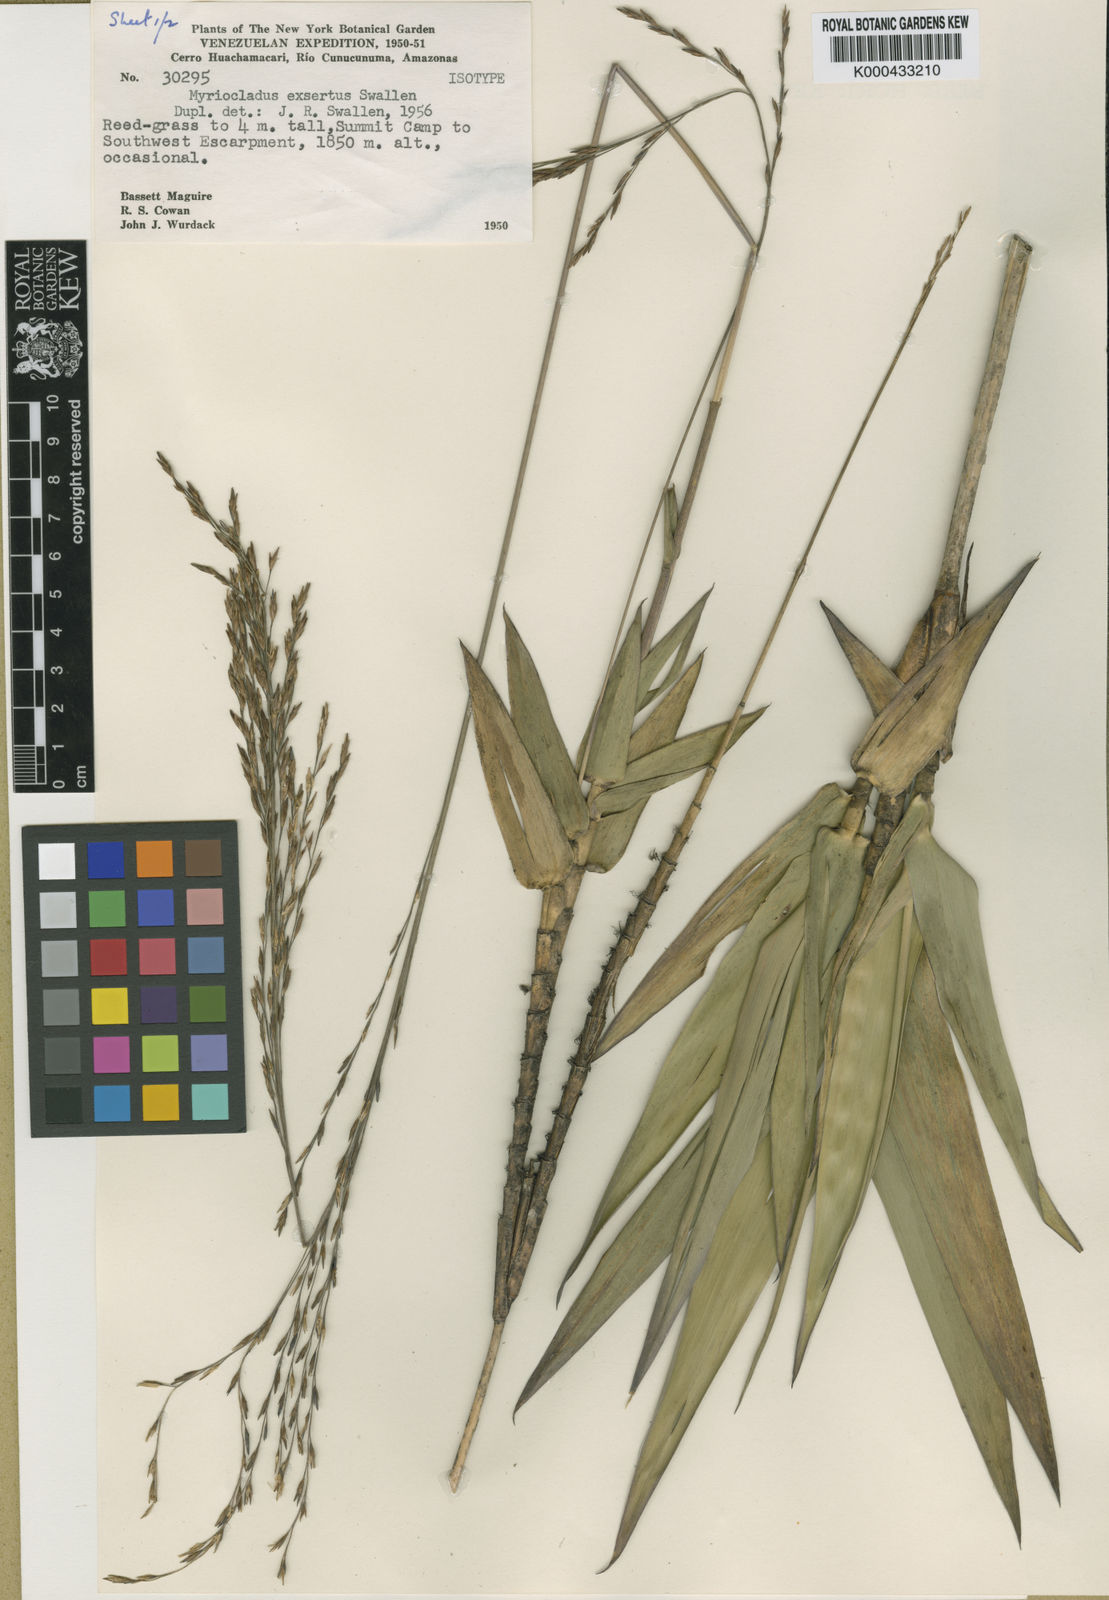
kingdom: Plantae
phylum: Tracheophyta
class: Liliopsida
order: Poales
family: Poaceae
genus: Myriocladus
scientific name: Myriocladus exsertus
